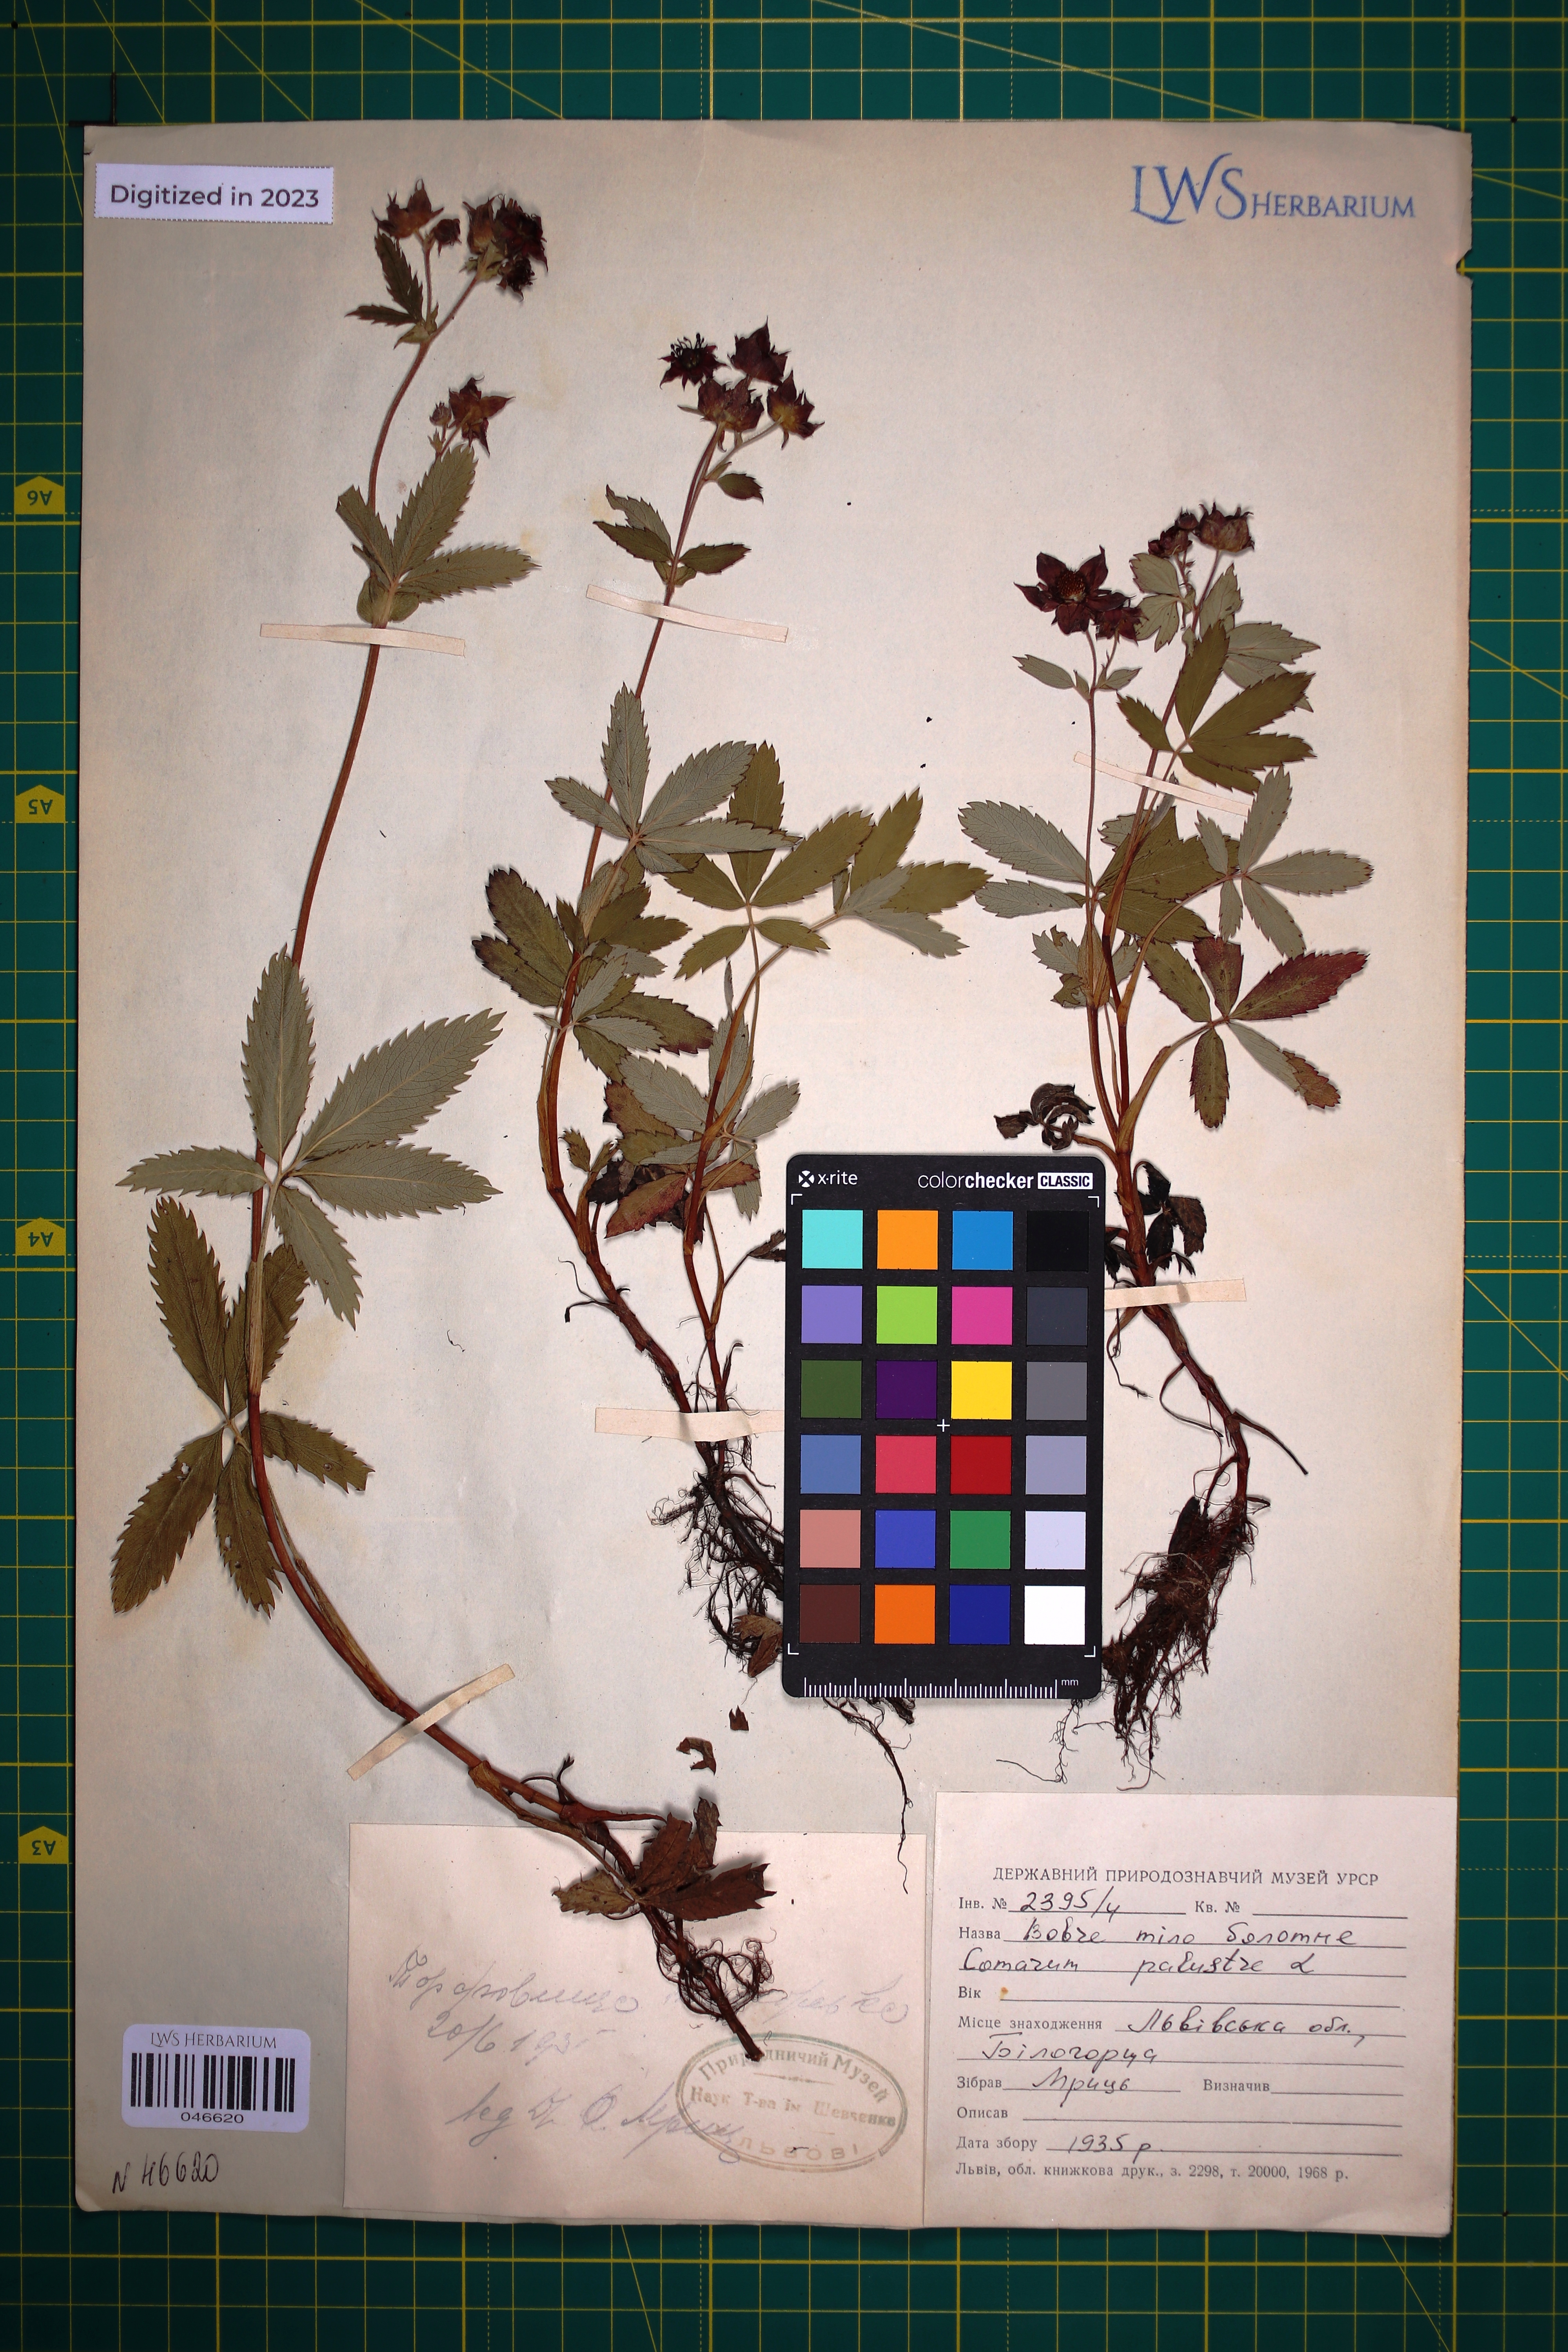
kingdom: Plantae
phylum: Tracheophyta
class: Magnoliopsida
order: Rosales
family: Rosaceae
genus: Comarum
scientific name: Comarum palustre
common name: Marsh cinquefoil
